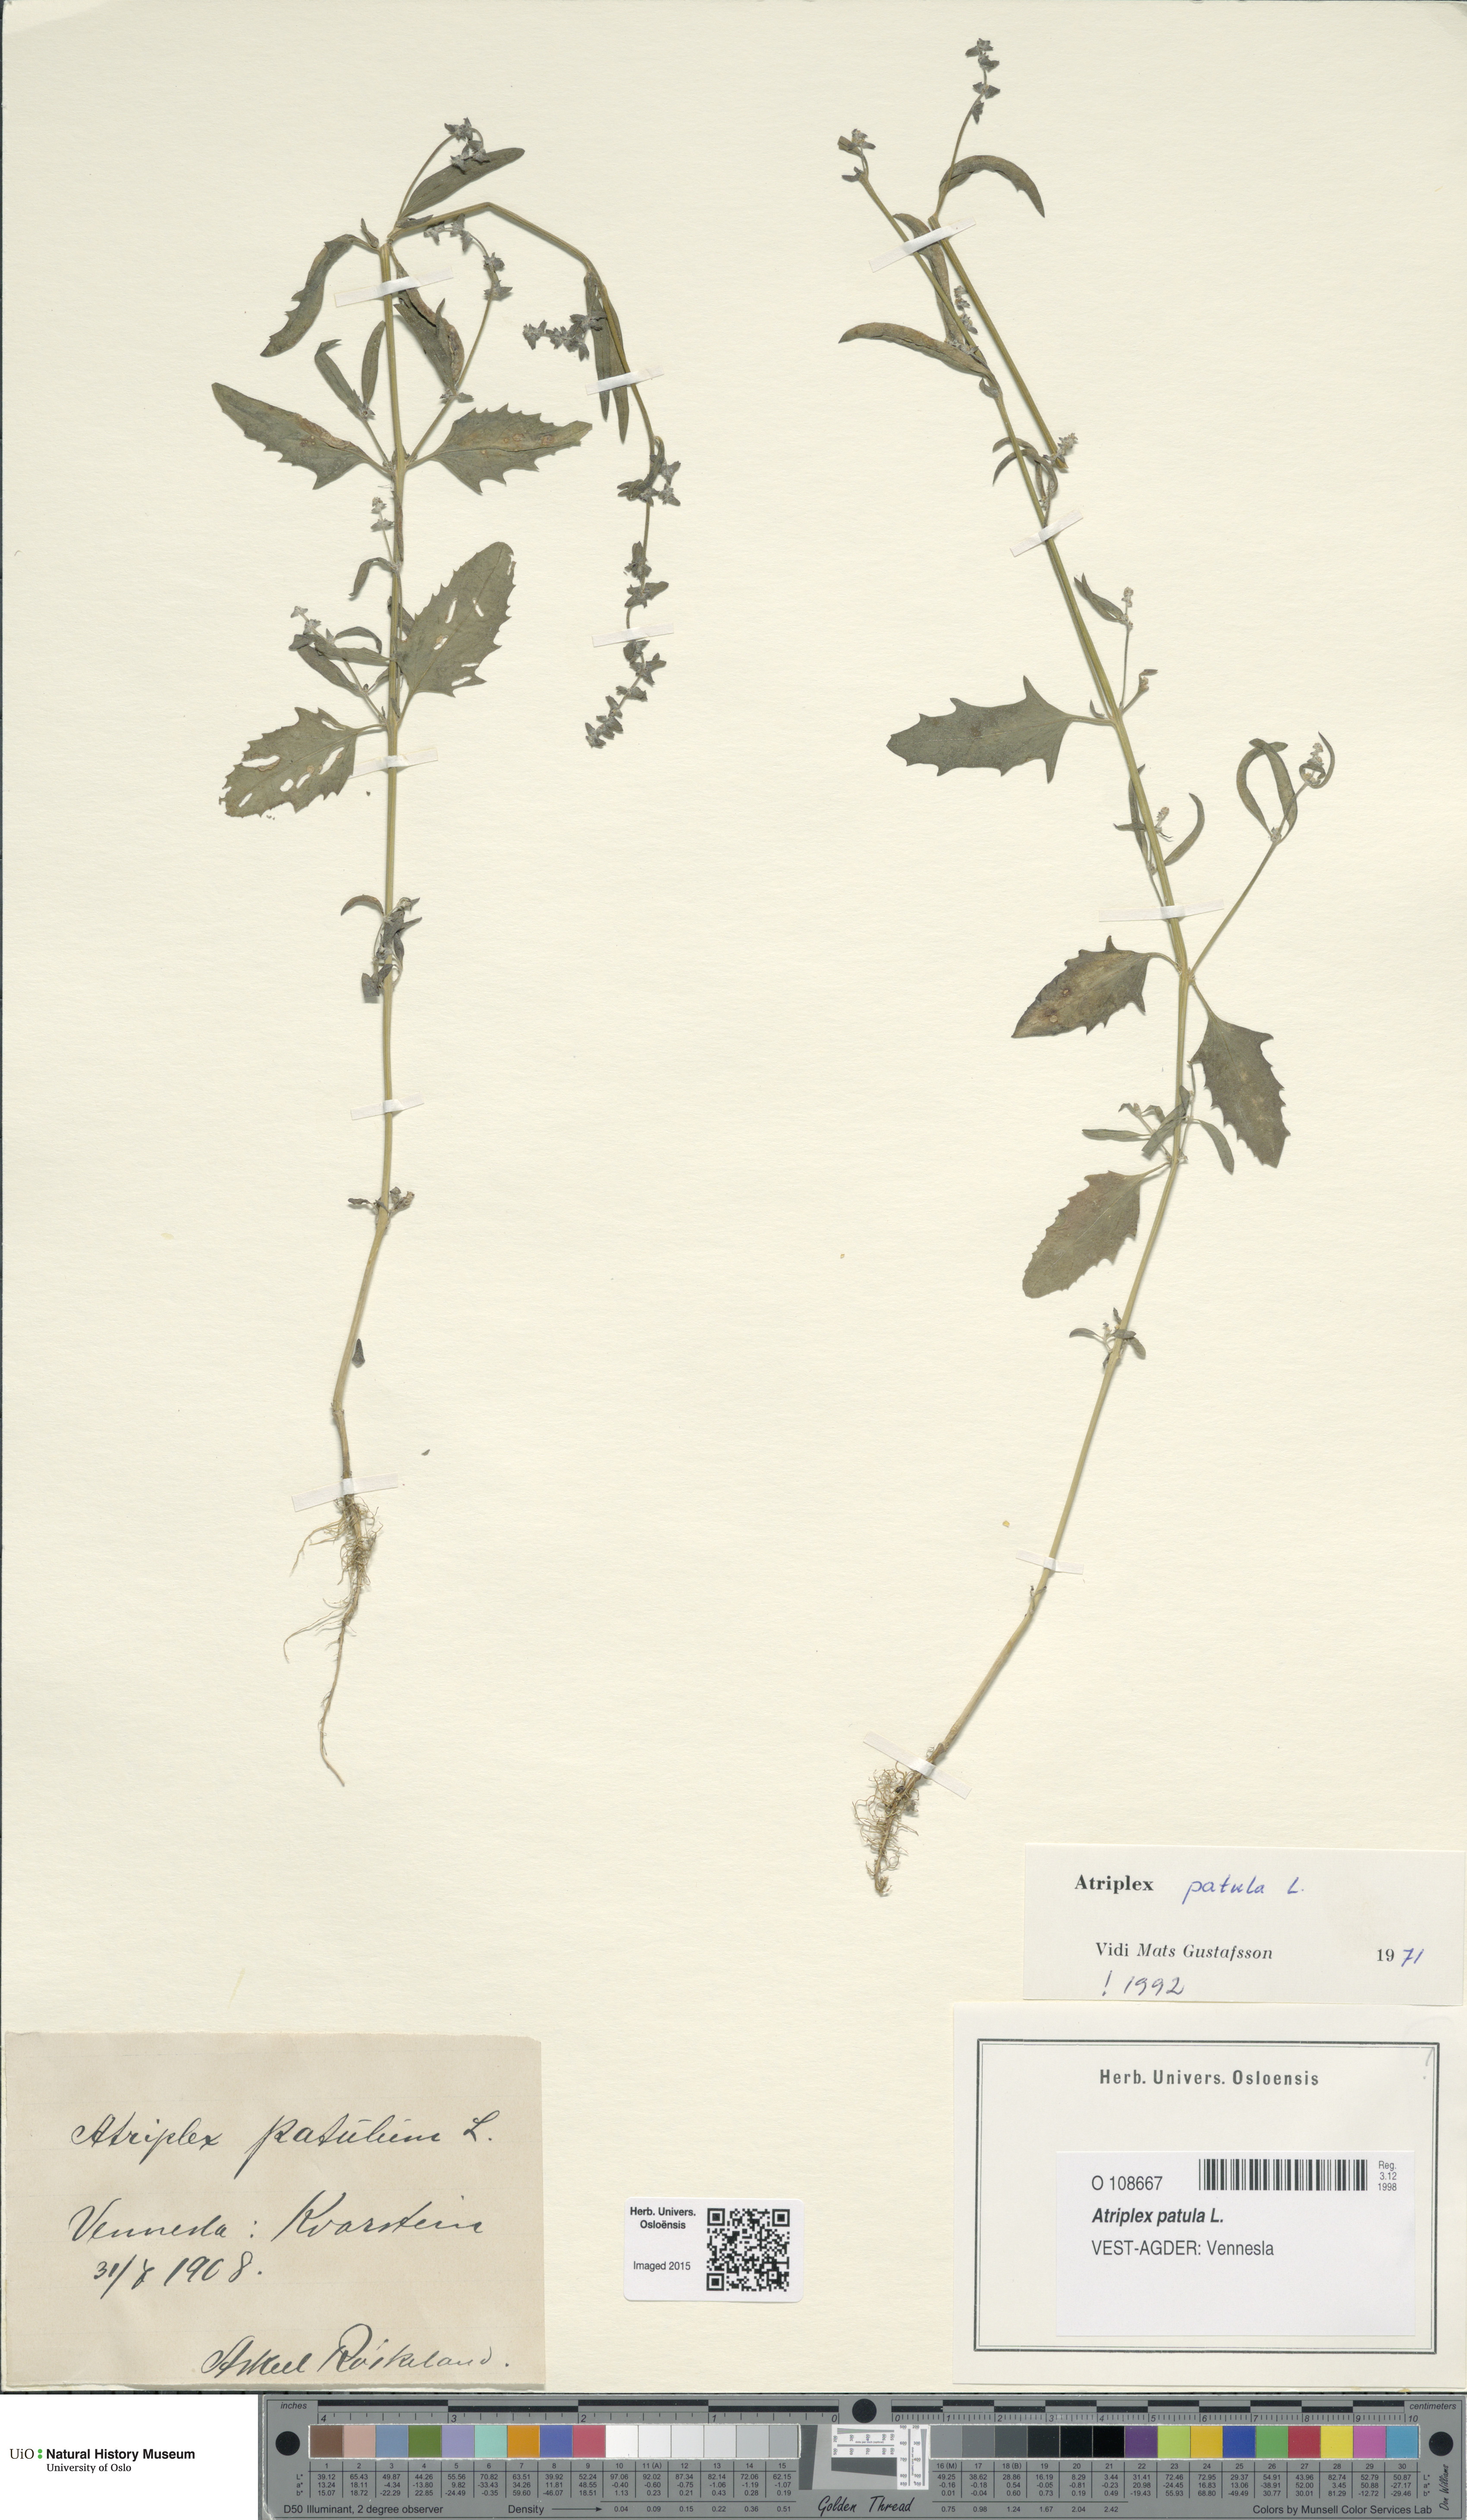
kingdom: Plantae
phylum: Tracheophyta
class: Magnoliopsida
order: Caryophyllales
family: Amaranthaceae
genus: Atriplex
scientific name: Atriplex patula
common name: Common orache
